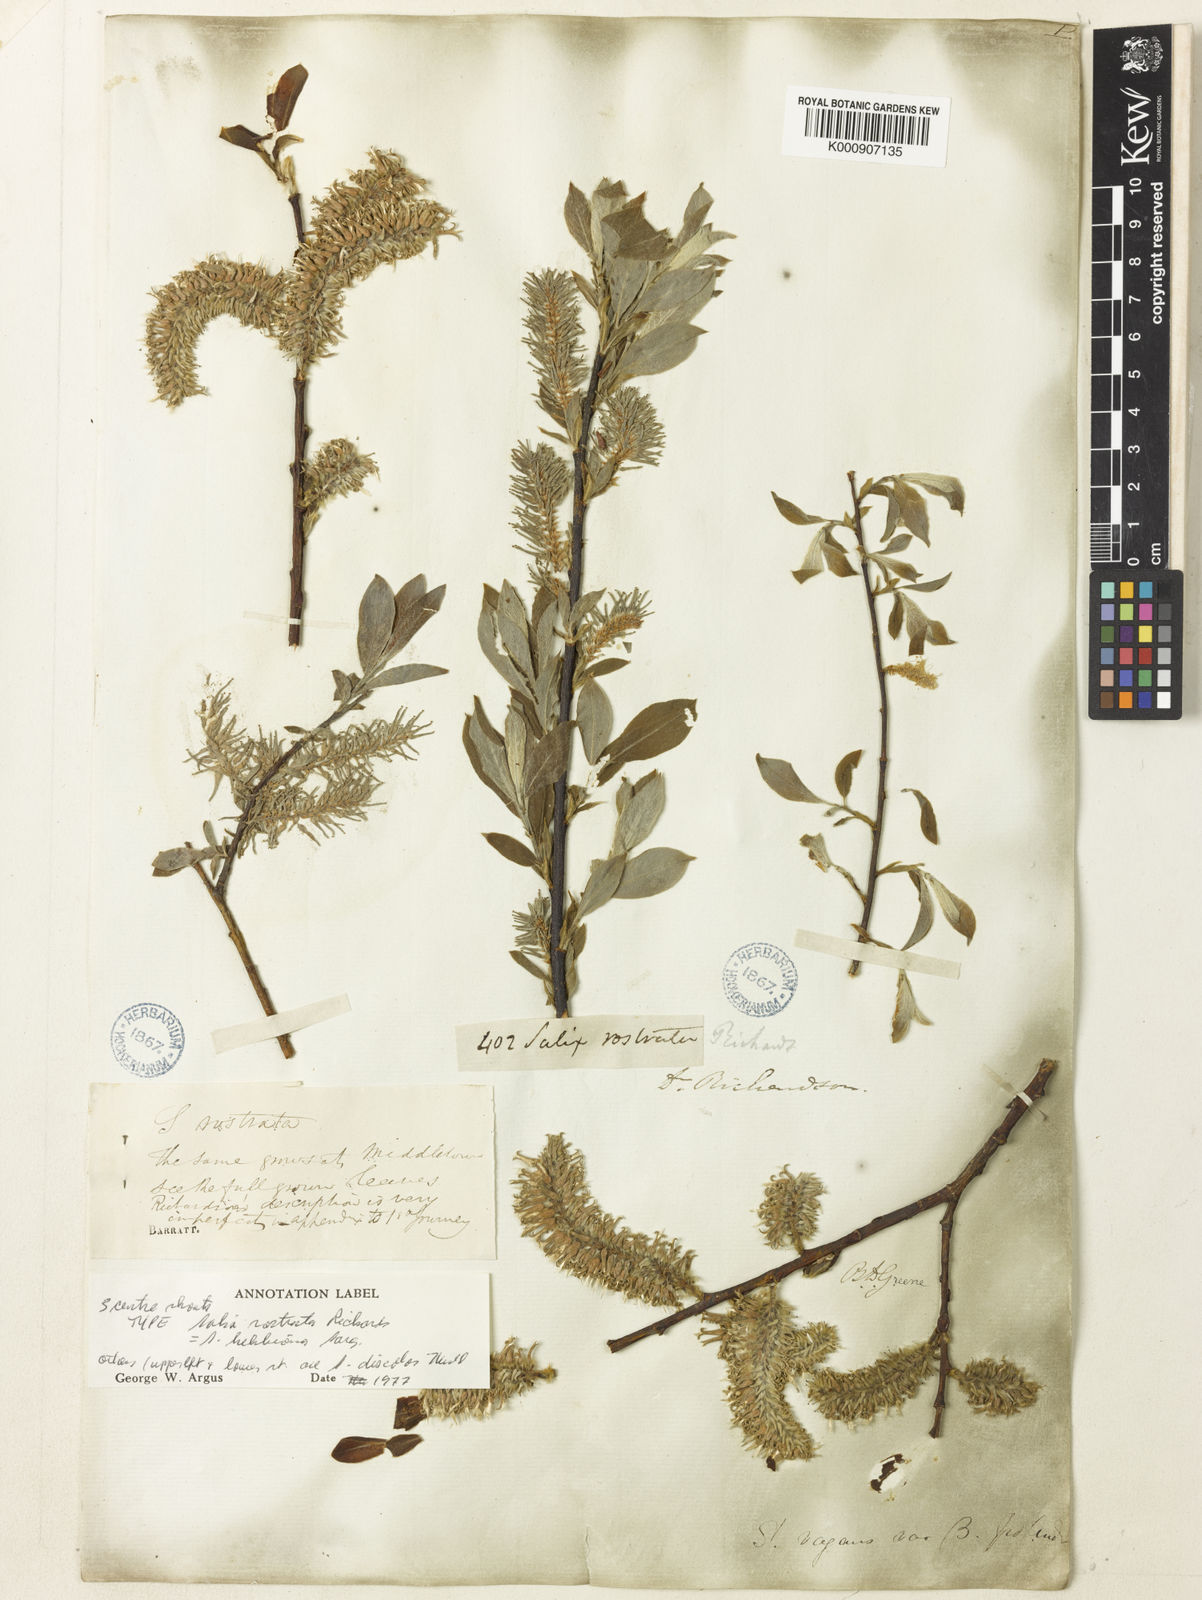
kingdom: Plantae
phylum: Tracheophyta
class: Magnoliopsida
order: Malpighiales
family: Salicaceae
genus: Salix
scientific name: Salix bebbiana
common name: Bebb's willow
